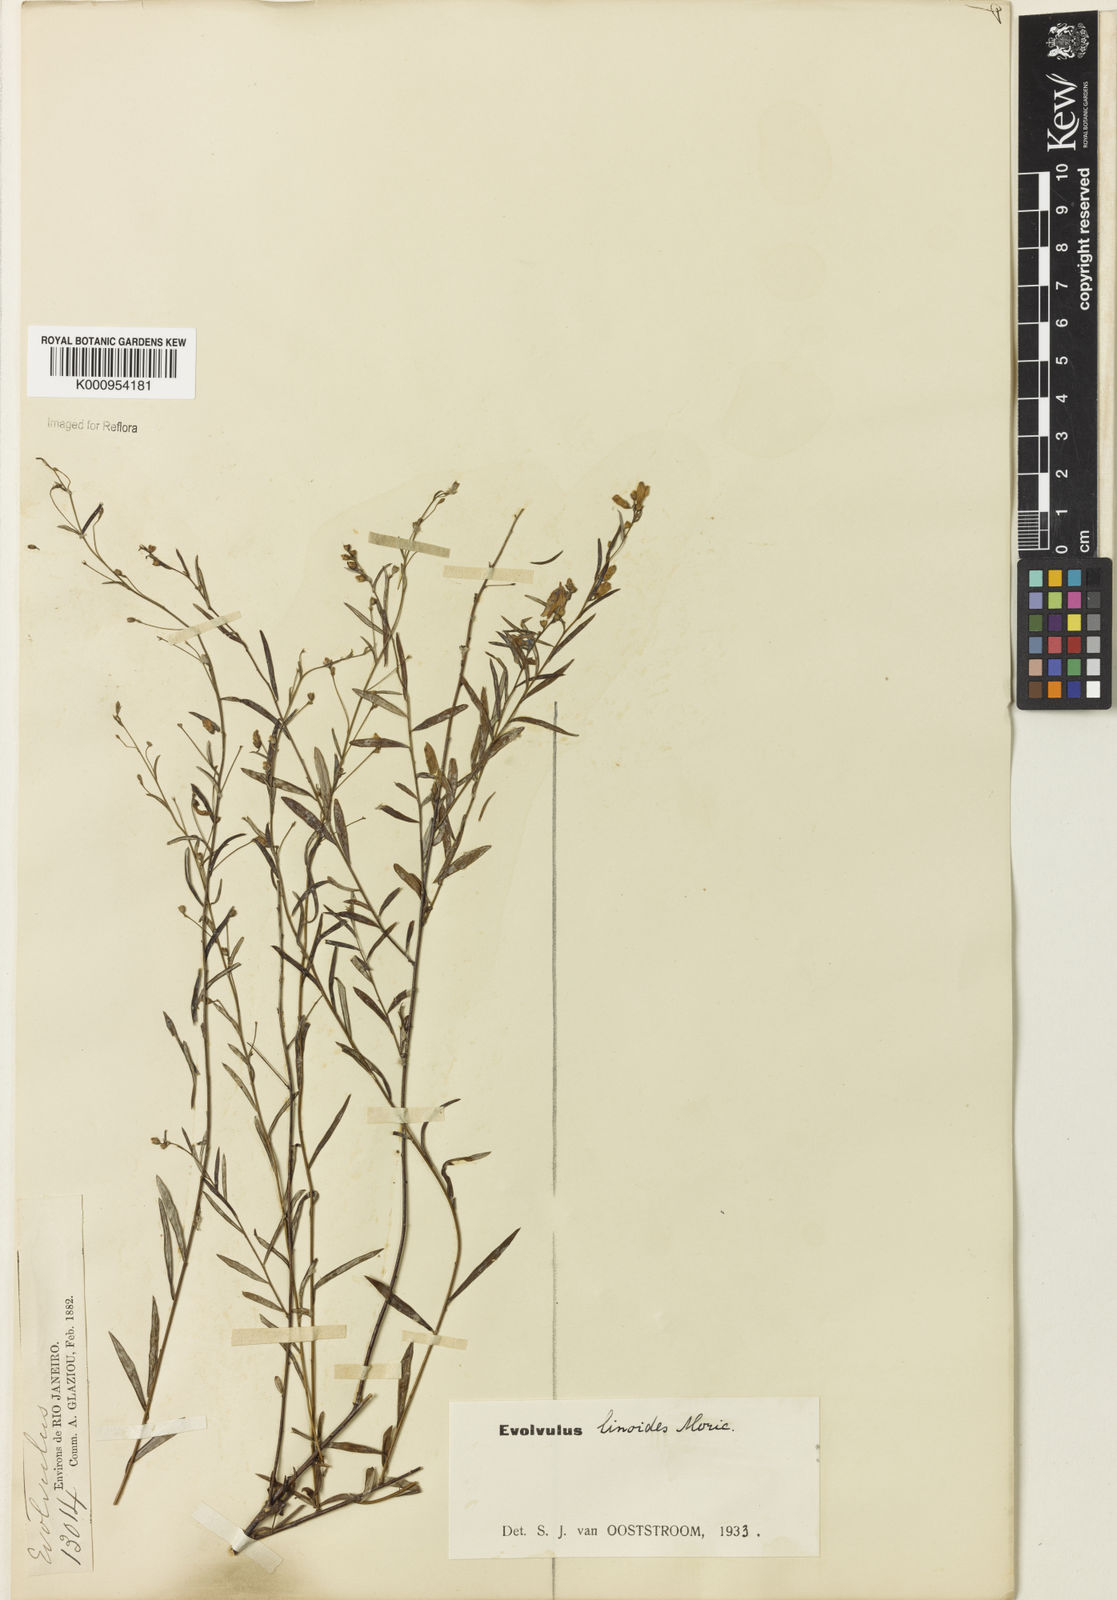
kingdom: Plantae
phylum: Tracheophyta
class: Magnoliopsida
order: Solanales
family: Convolvulaceae
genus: Evolvulus
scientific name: Evolvulus linoides
